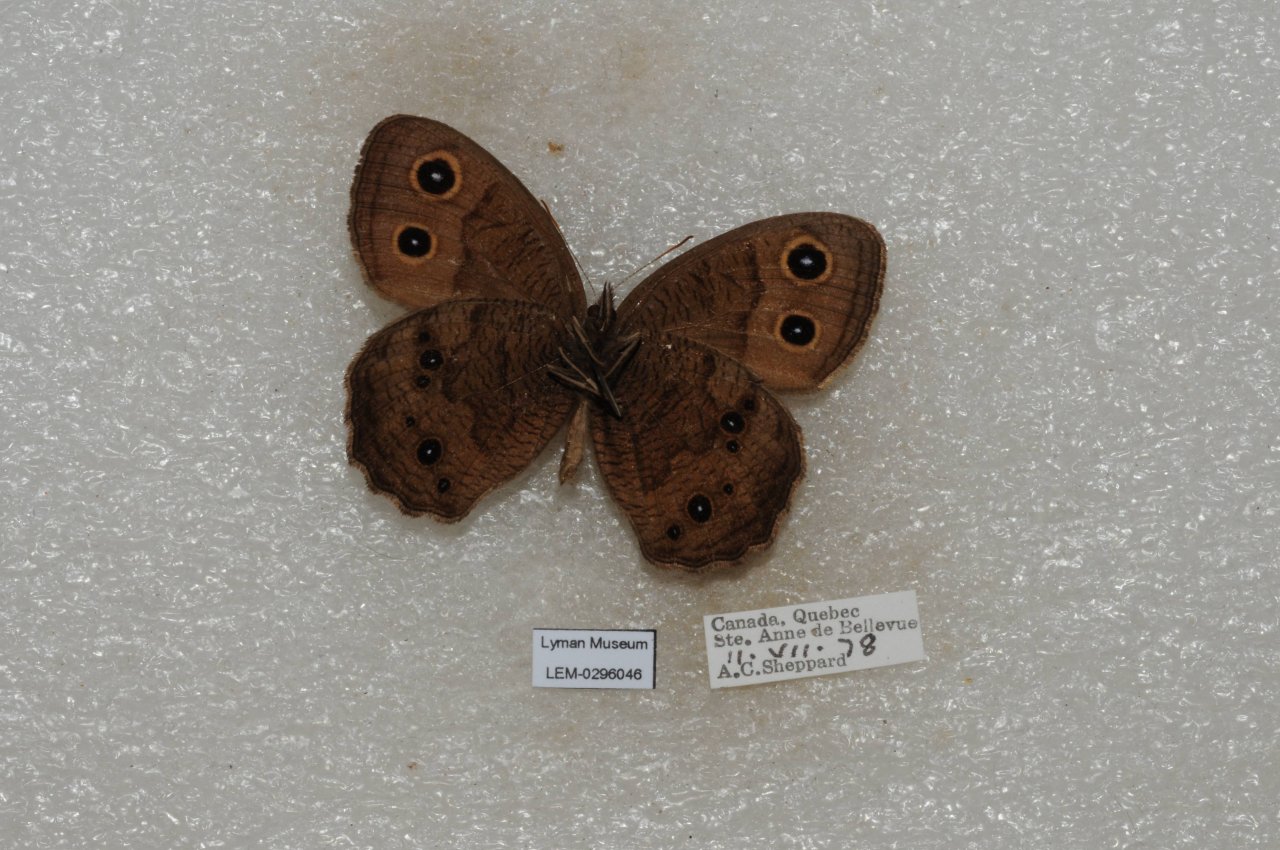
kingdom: Animalia
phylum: Arthropoda
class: Insecta
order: Lepidoptera
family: Nymphalidae
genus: Cercyonis
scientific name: Cercyonis pegala
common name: Common Wood-Nymph
